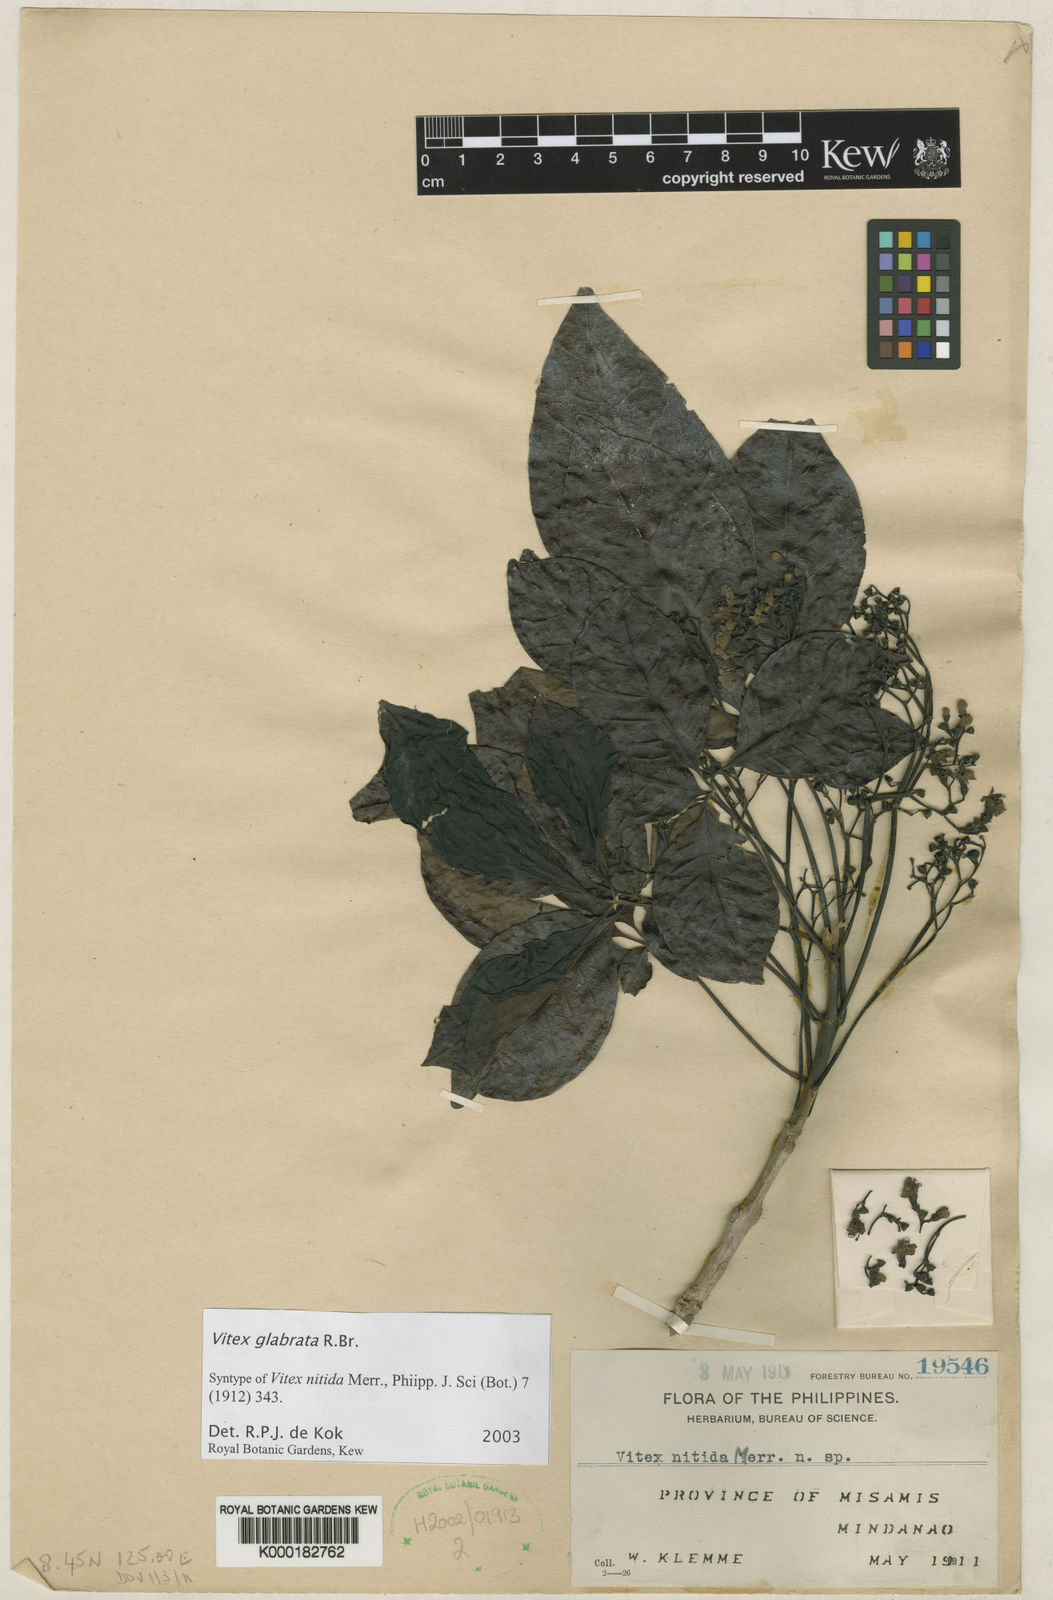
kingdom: Plantae
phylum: Tracheophyta
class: Magnoliopsida
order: Lamiales
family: Lamiaceae
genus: Vitex
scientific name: Vitex glabrata
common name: Smooth chastetree
